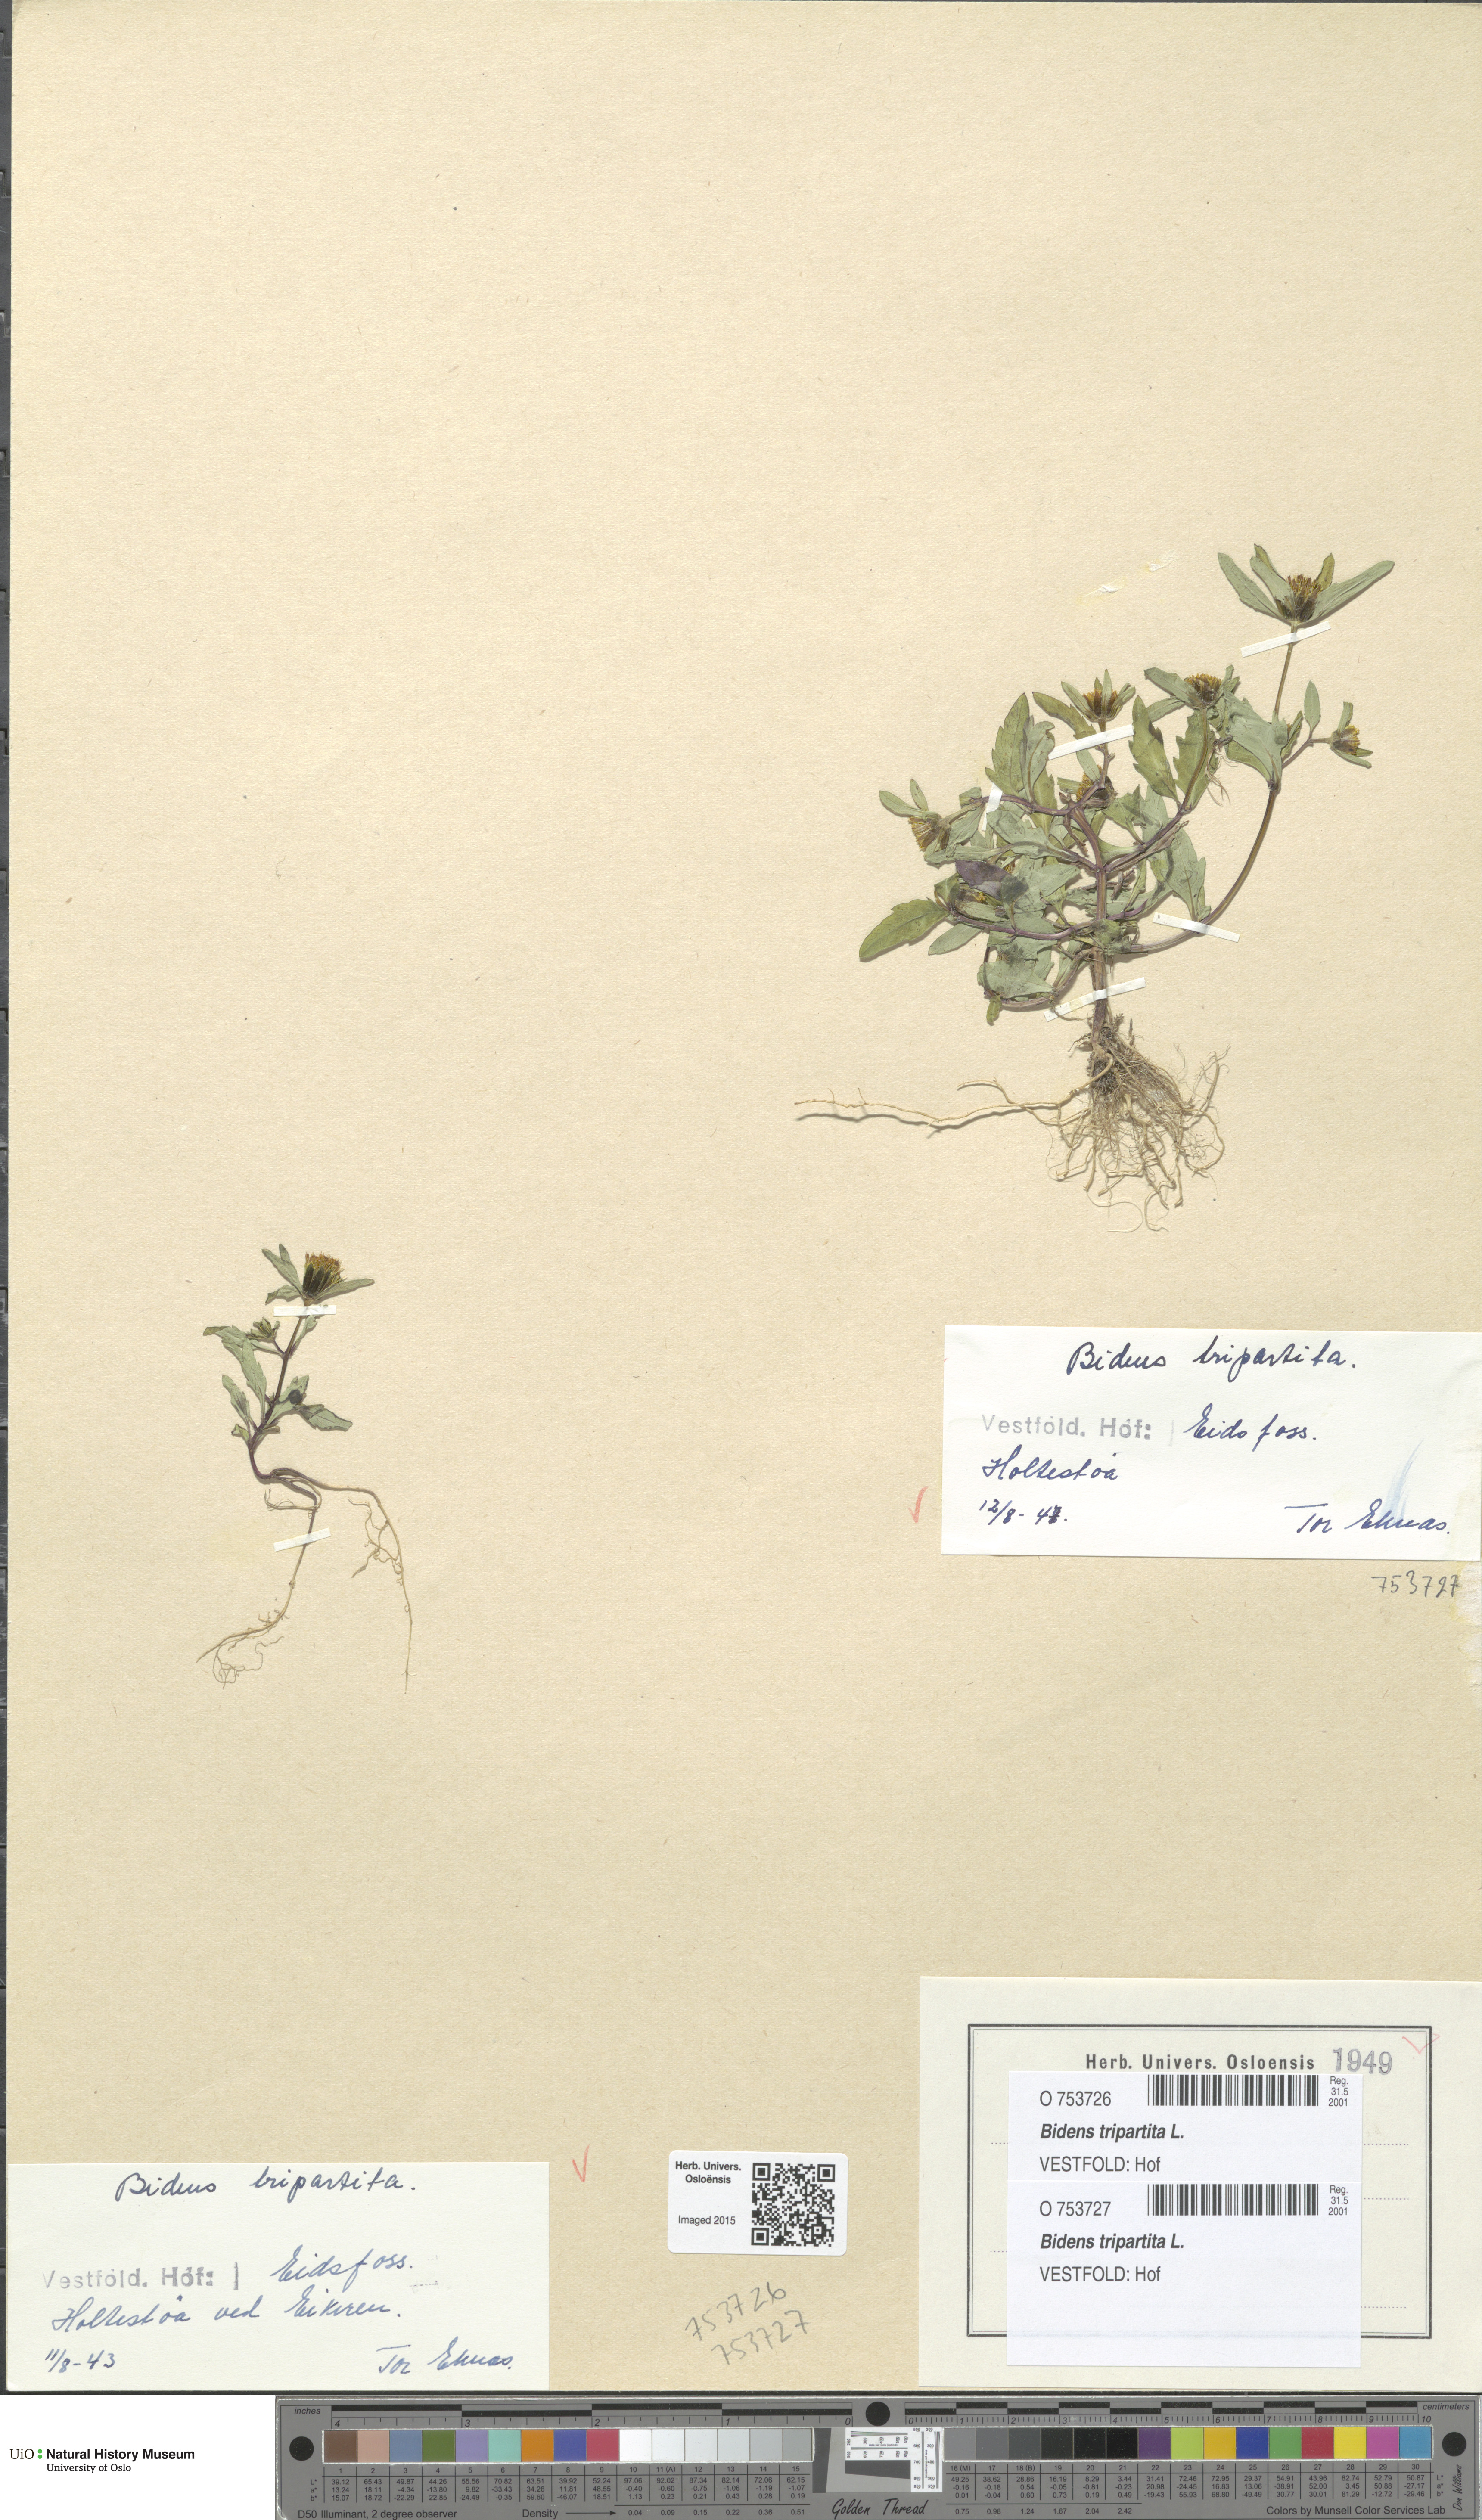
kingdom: Plantae
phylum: Tracheophyta
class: Magnoliopsida
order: Asterales
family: Asteraceae
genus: Bidens
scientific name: Bidens tripartita
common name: Trifid bur-marigold
